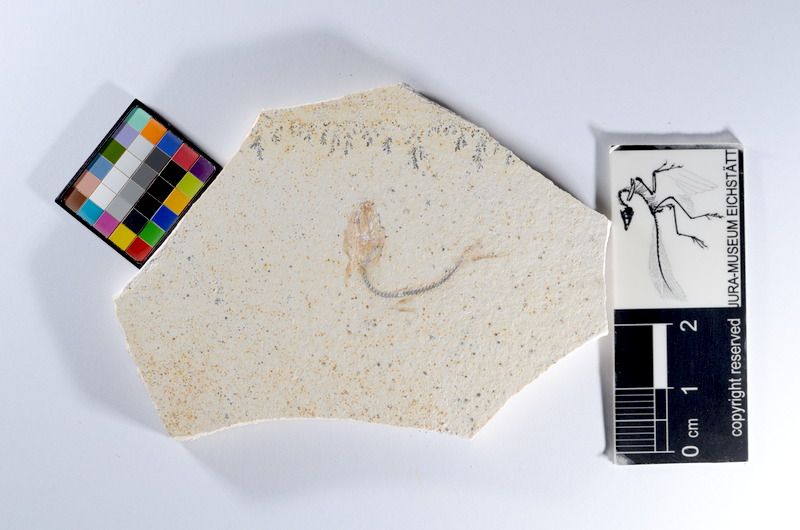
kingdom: Animalia
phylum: Chordata
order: Salmoniformes
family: Orthogonikleithridae
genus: Orthogonikleithrus
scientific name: Orthogonikleithrus hoelli
